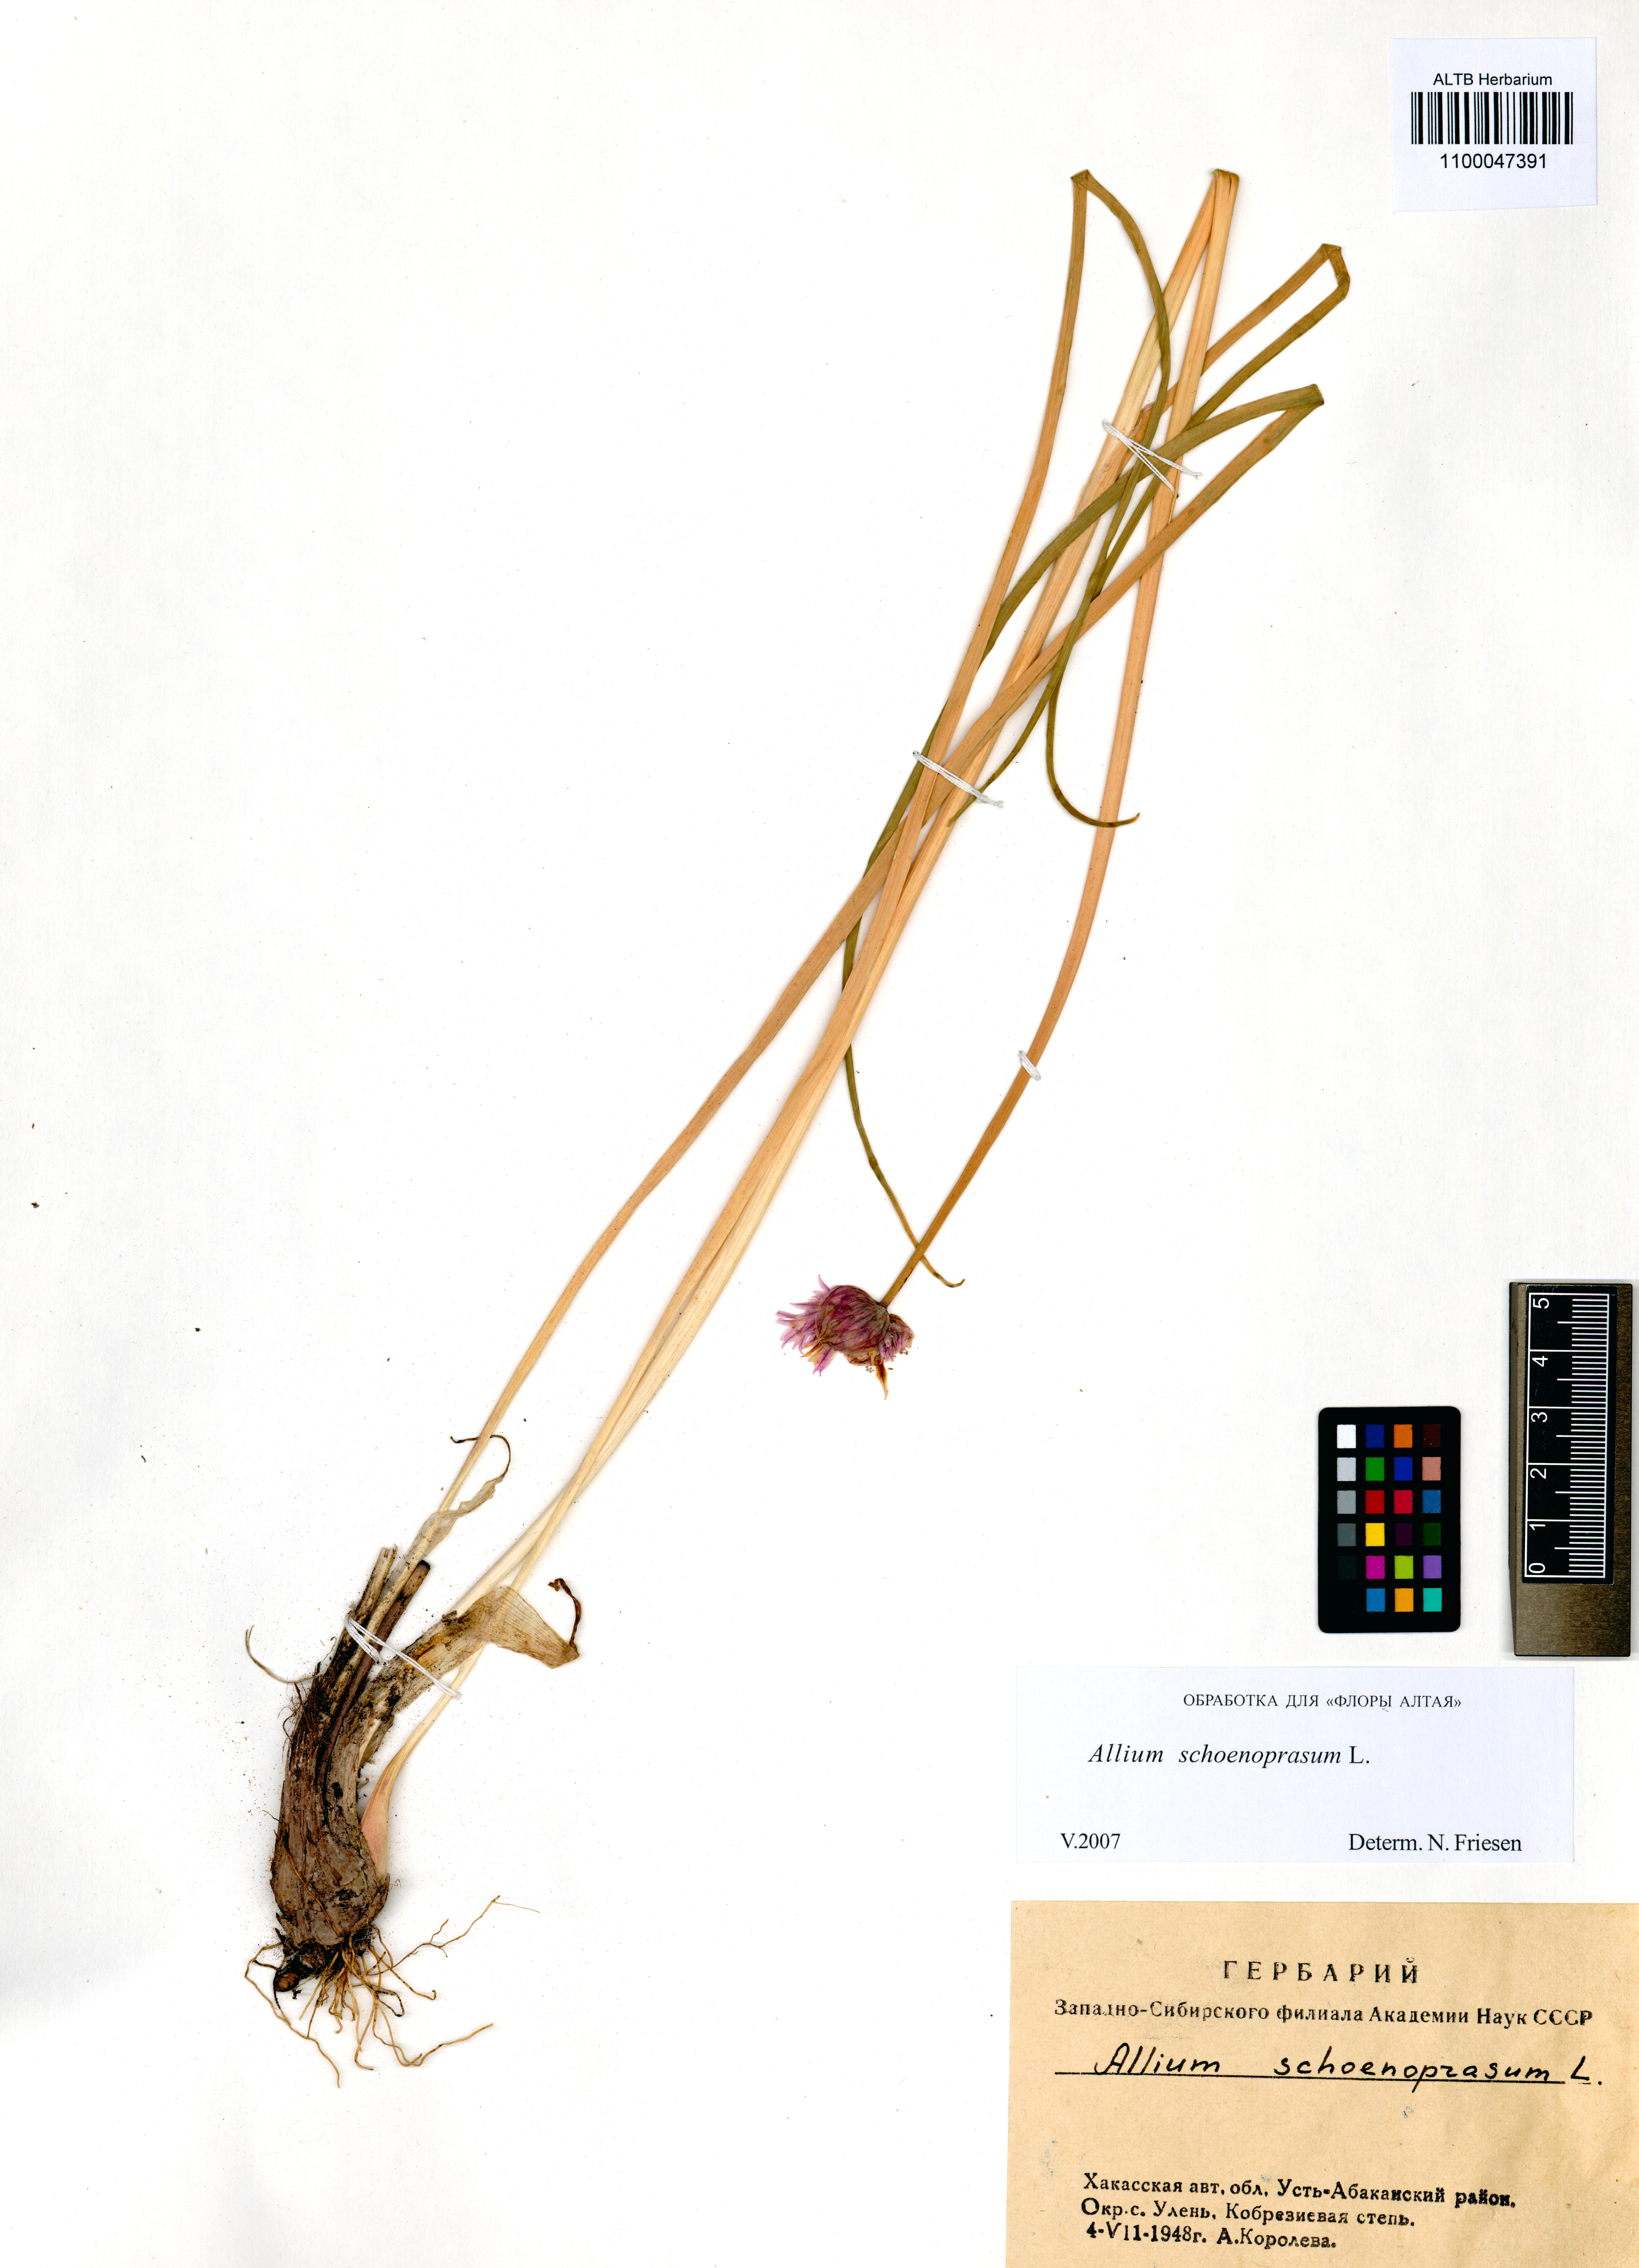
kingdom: Plantae
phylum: Tracheophyta
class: Liliopsida
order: Asparagales
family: Amaryllidaceae
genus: Allium
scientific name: Allium schoenoprasum
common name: Chives
